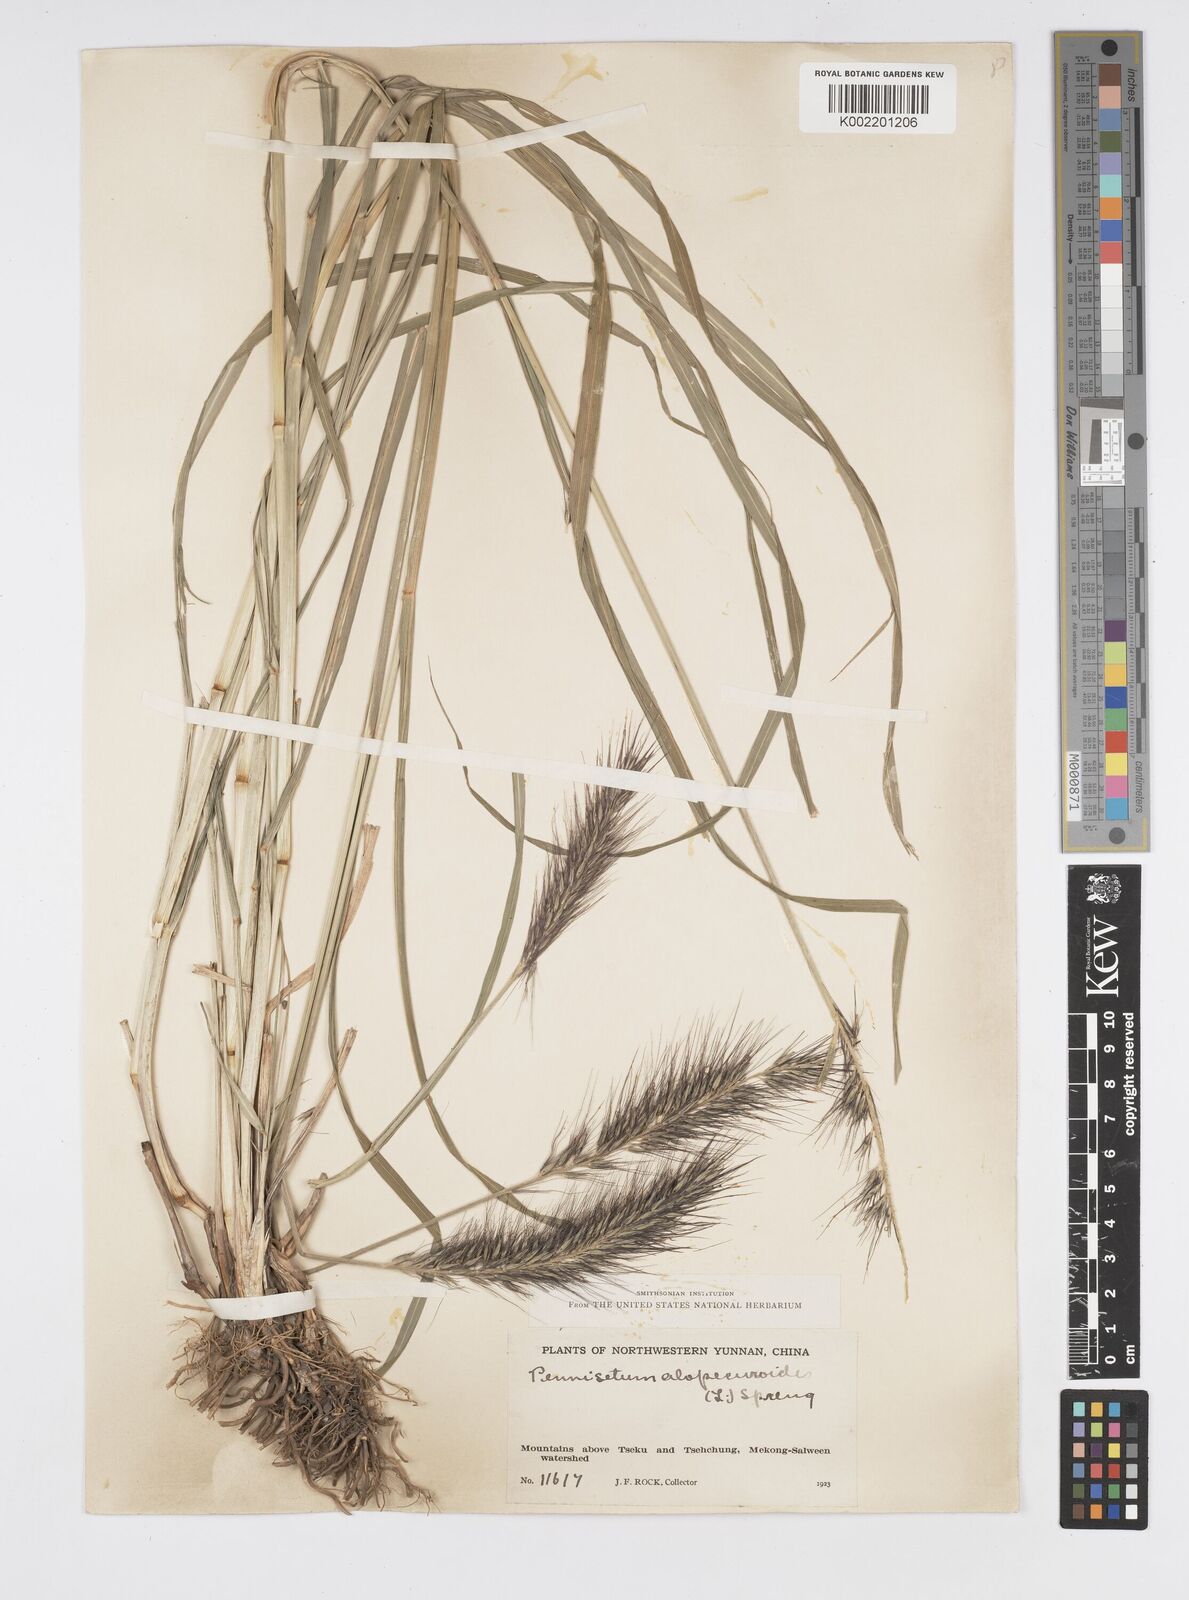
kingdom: Plantae
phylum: Tracheophyta
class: Liliopsida
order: Poales
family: Poaceae
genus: Cenchrus
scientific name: Cenchrus alopecuroides
